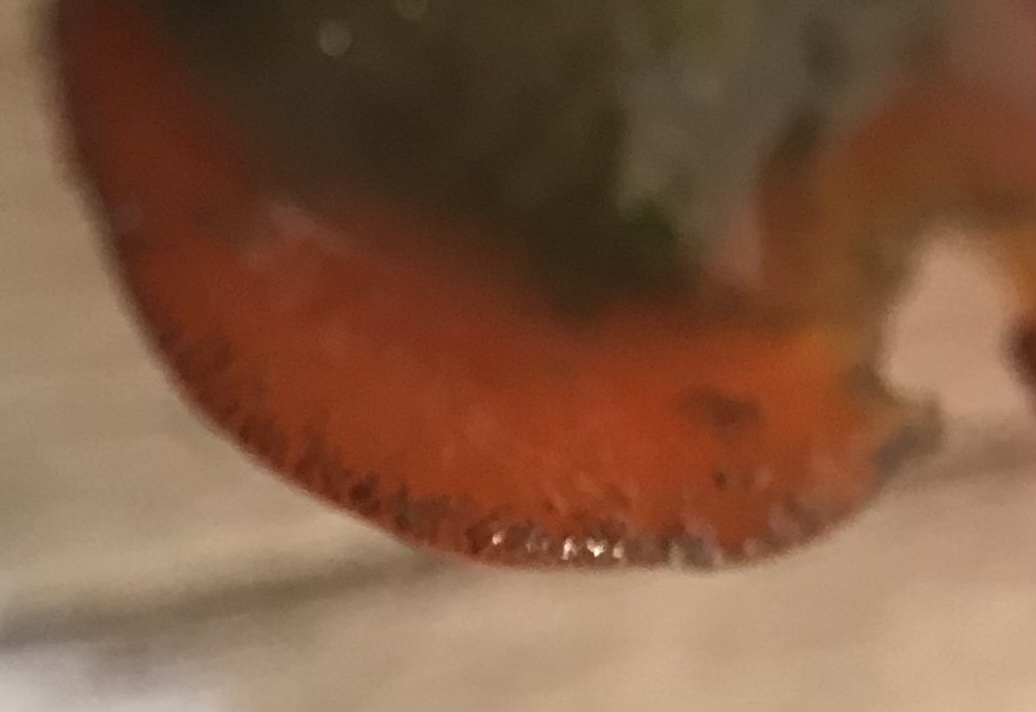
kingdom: Fungi
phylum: Ascomycota
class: Pezizomycetes
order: Pezizales
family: Pyronemataceae
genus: Melastiza
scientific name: Melastiza cornubiensis
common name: mørkrandet rødbæger
